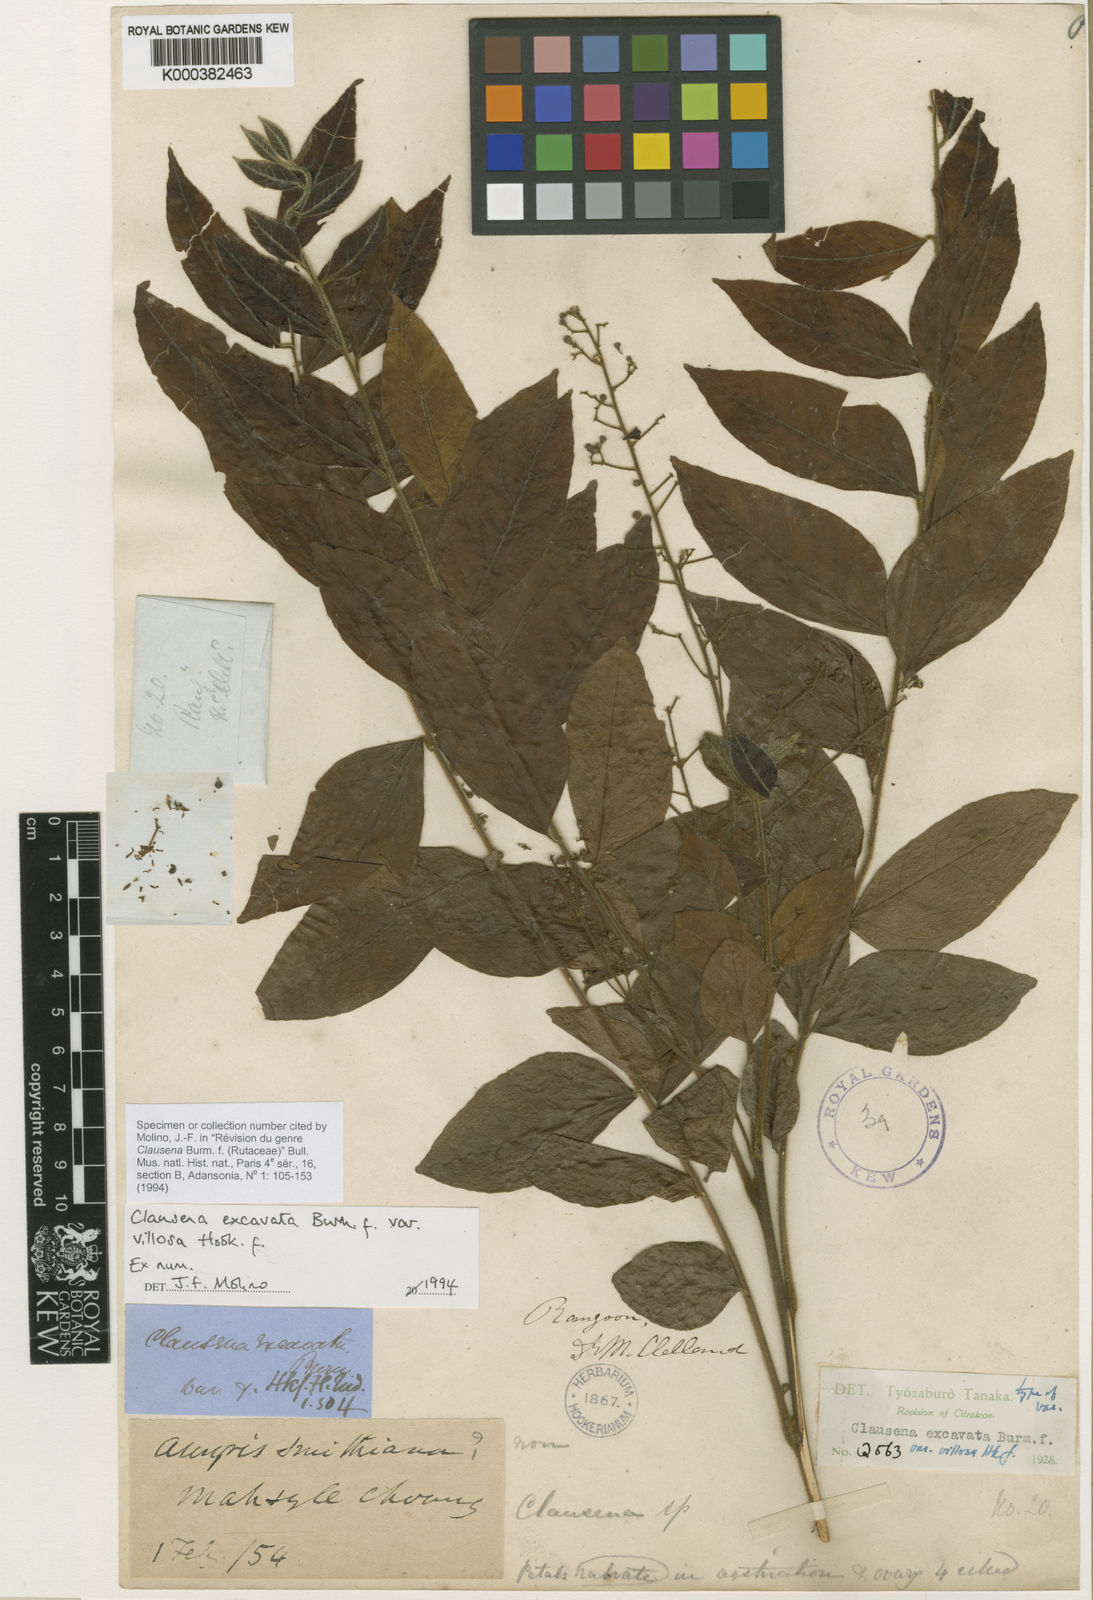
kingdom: Plantae
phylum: Tracheophyta
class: Magnoliopsida
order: Sapindales
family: Rutaceae
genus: Clausena
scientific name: Clausena excavata
